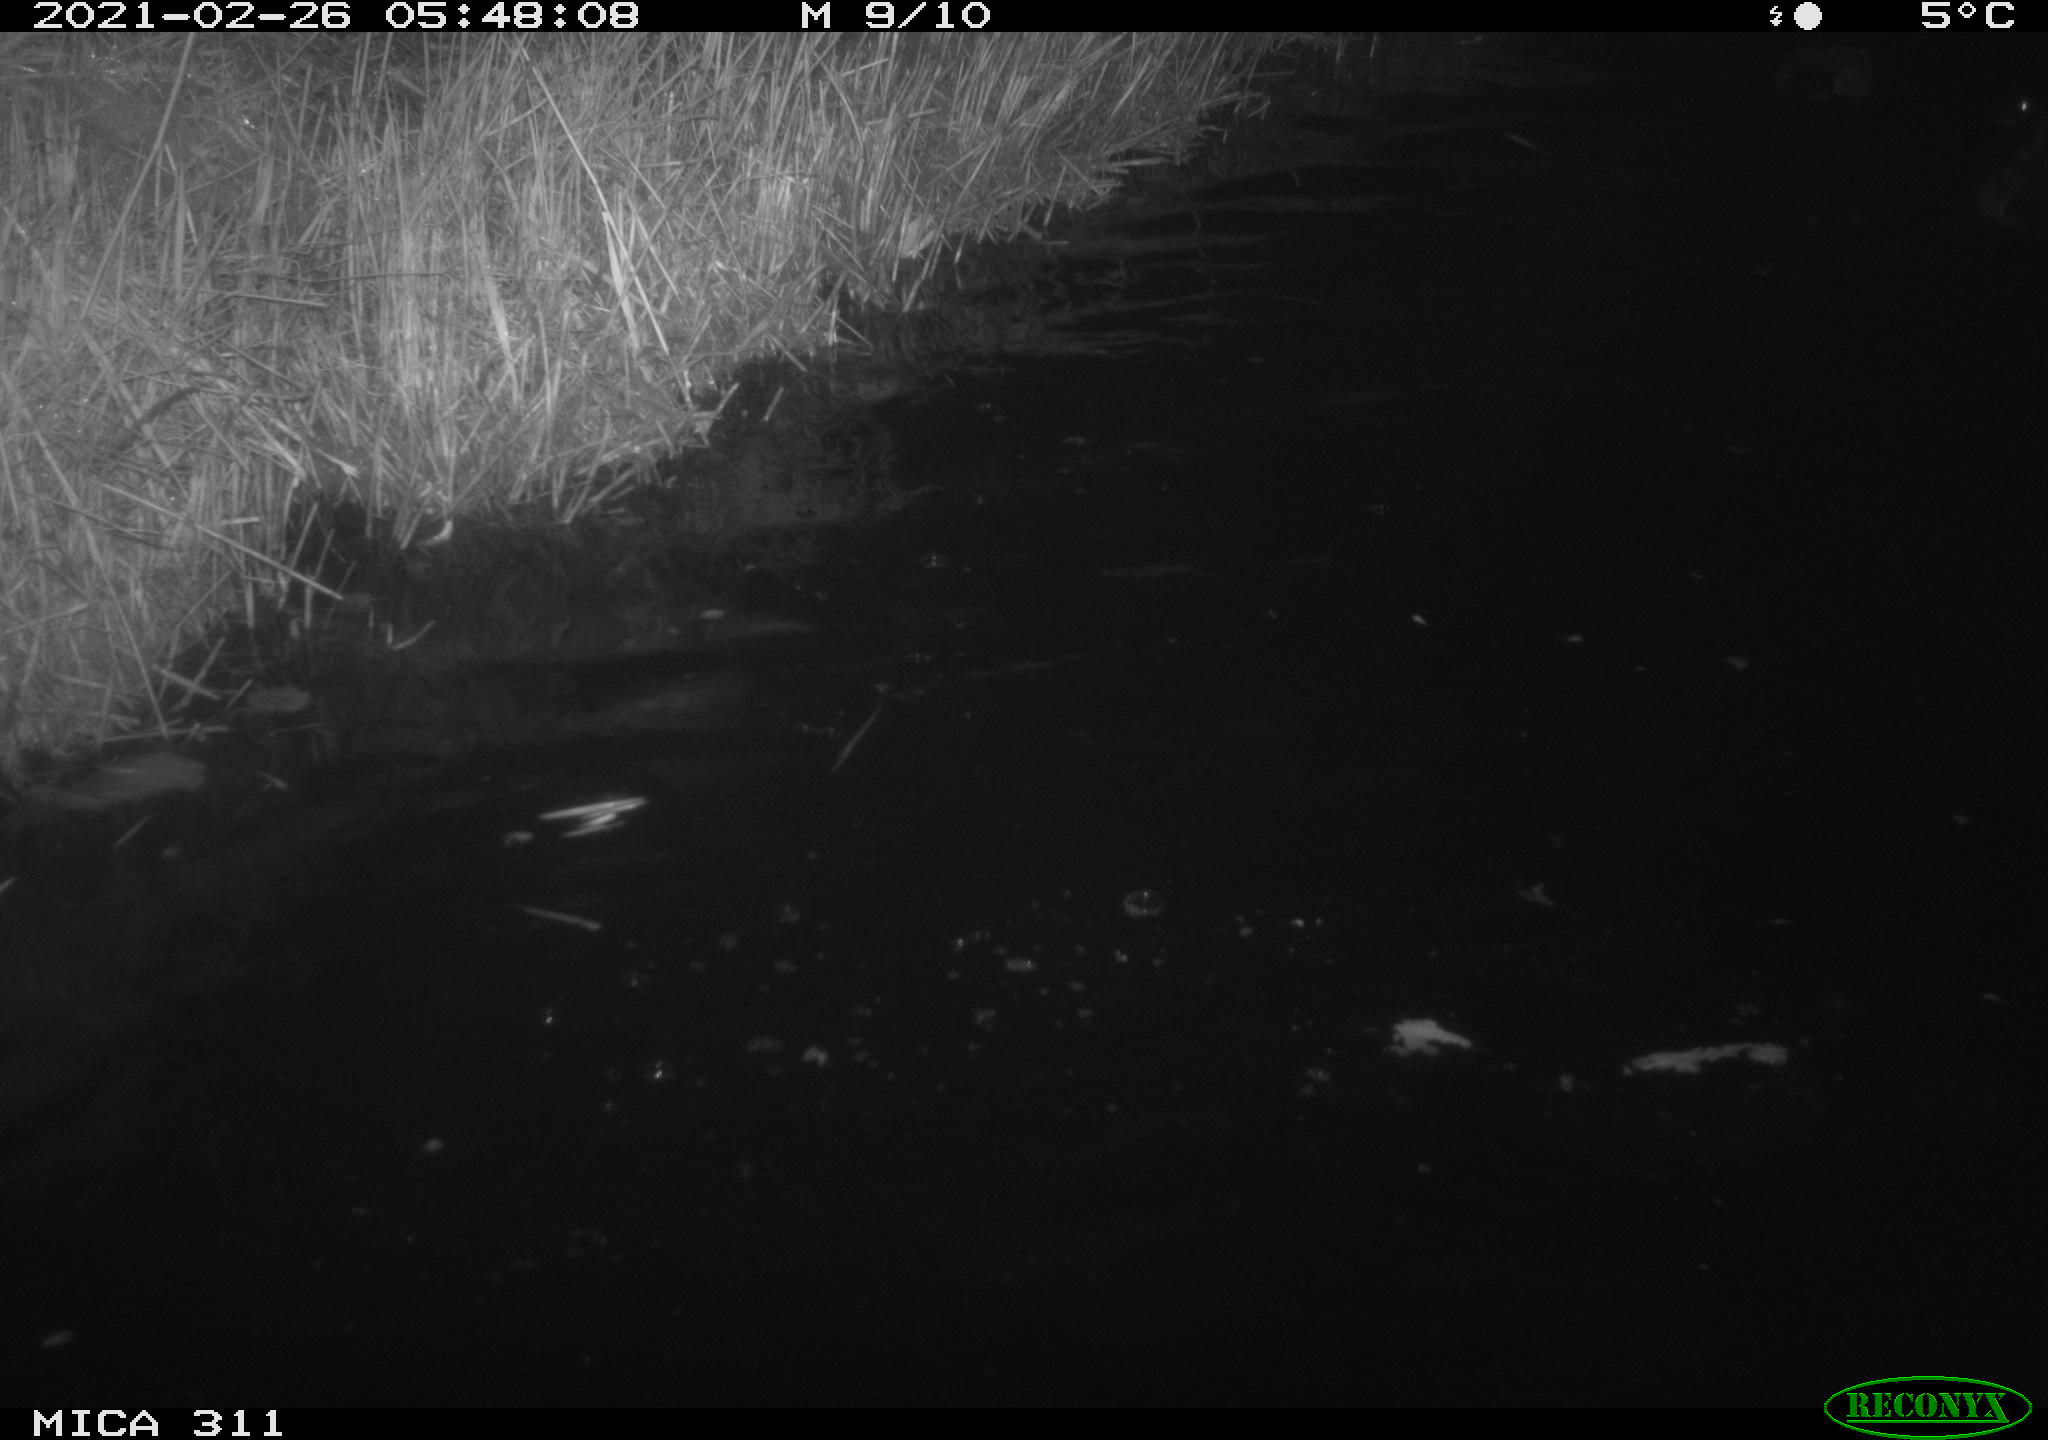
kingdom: Animalia
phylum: Chordata
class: Aves
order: Anseriformes
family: Anatidae
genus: Anas
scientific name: Anas
